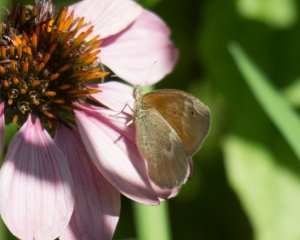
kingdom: Animalia
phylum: Arthropoda
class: Insecta
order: Lepidoptera
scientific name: Lepidoptera
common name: Butterflies
